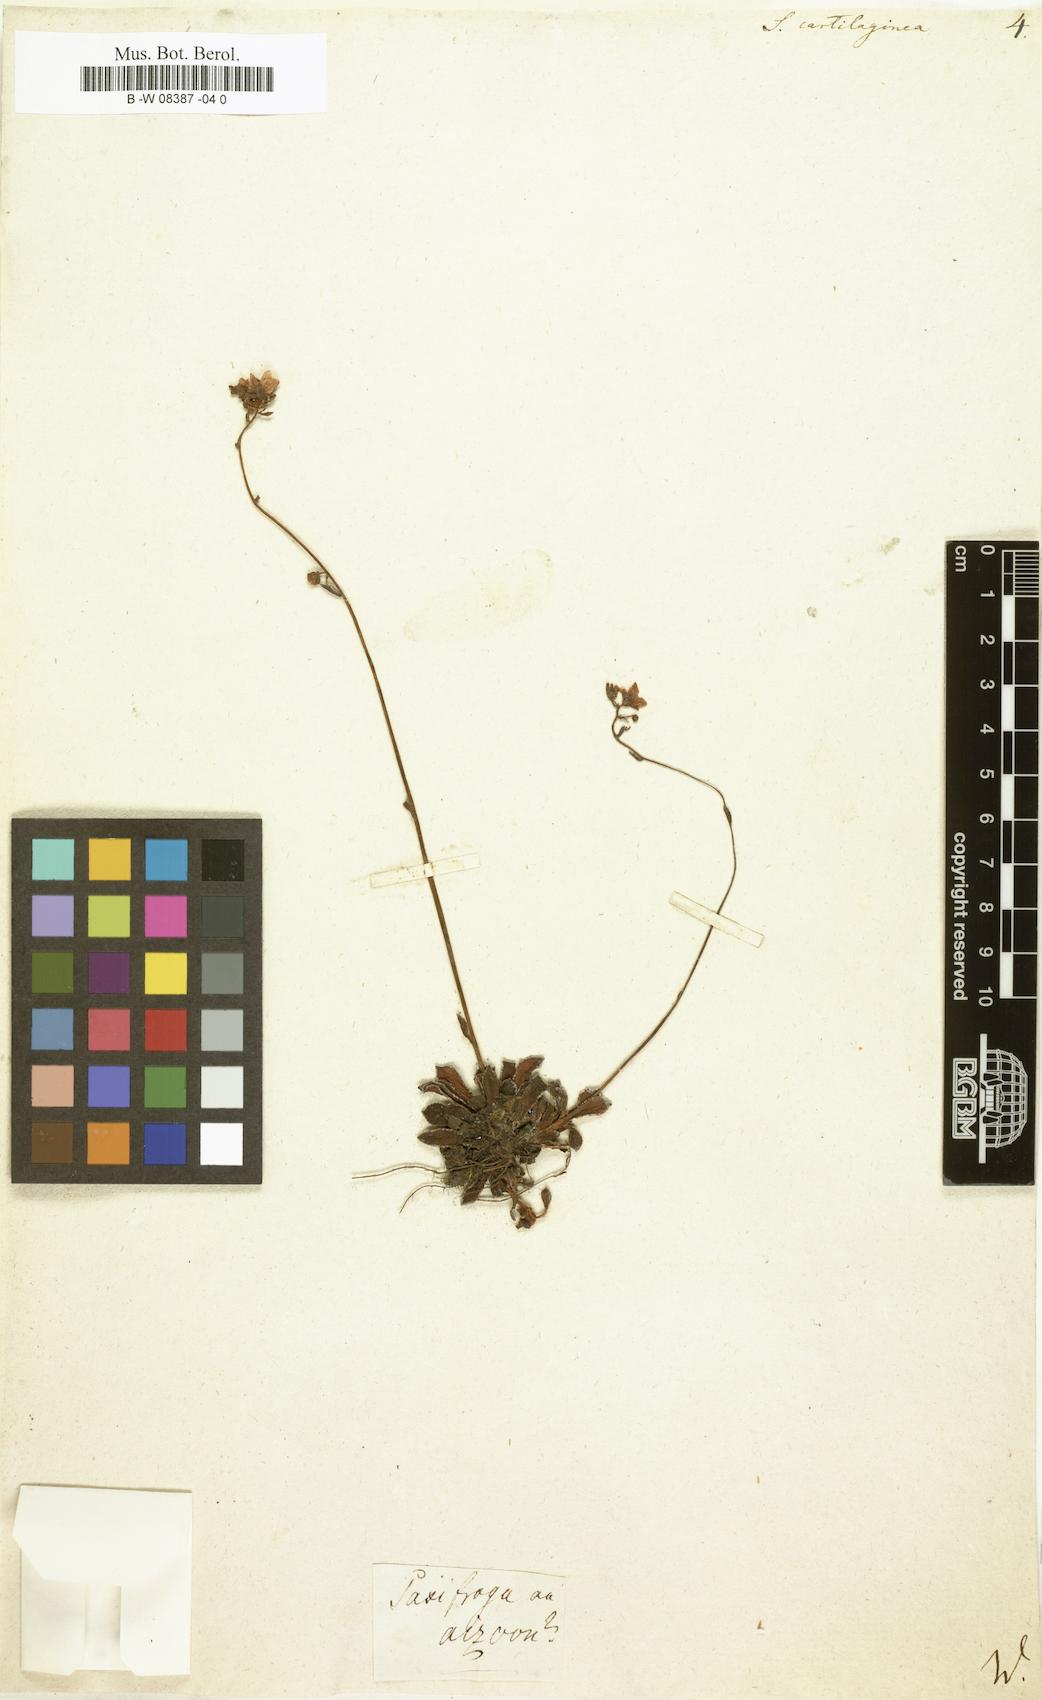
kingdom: Plantae
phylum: Tracheophyta
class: Magnoliopsida
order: Saxifragales
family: Saxifragaceae
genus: Saxifraga
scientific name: Saxifraga paniculata
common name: Livelong saxifrage
